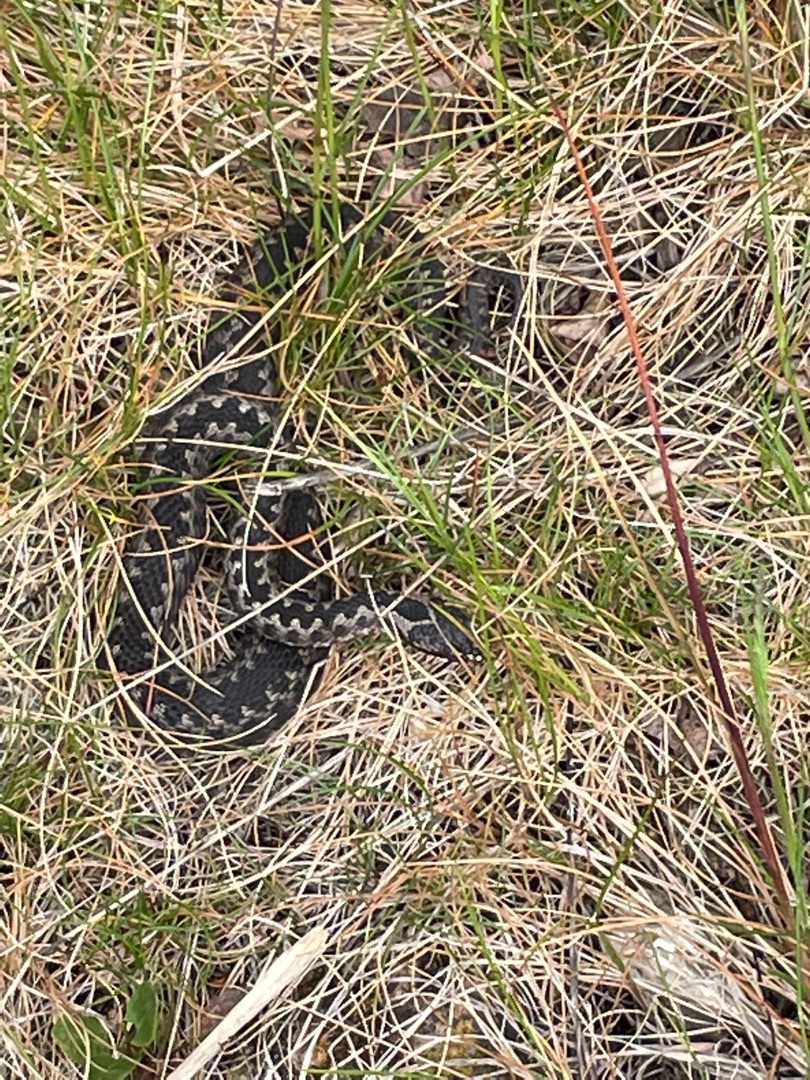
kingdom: Animalia
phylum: Chordata
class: Squamata
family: Viperidae
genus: Vipera
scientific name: Vipera berus
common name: Hugorm
